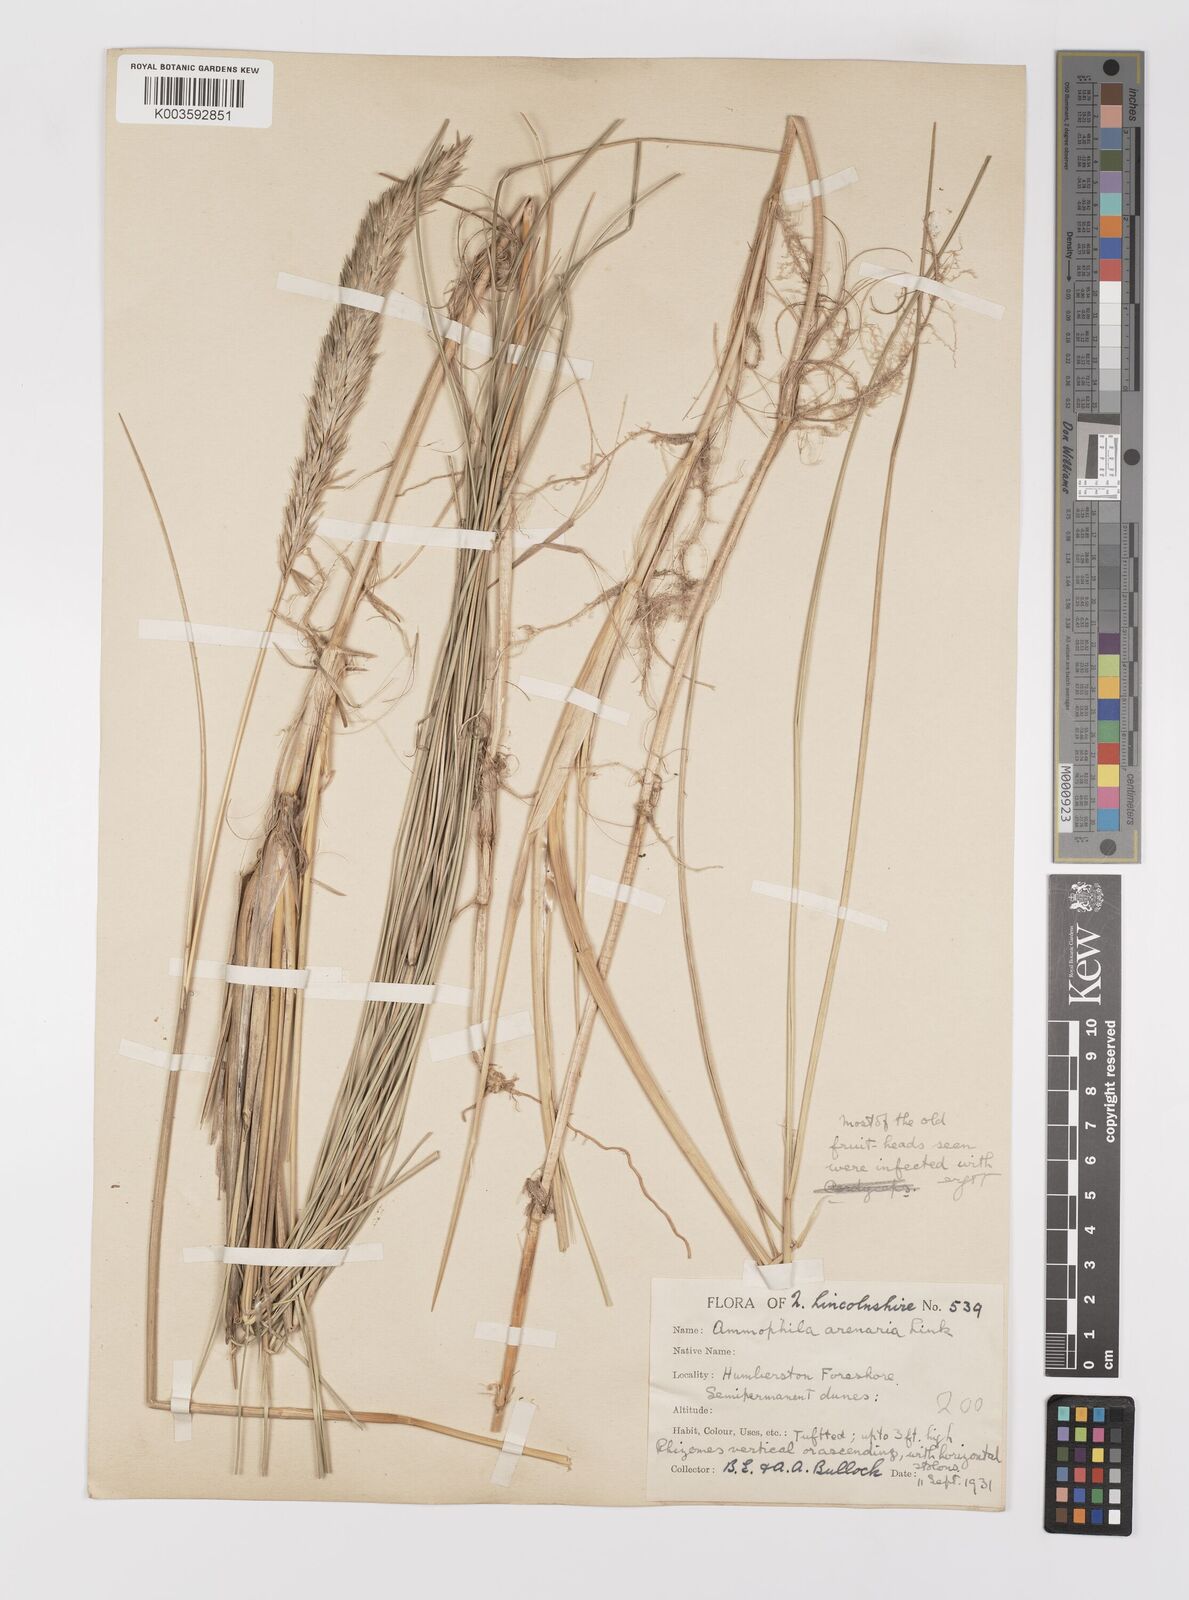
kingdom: Plantae
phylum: Tracheophyta
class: Liliopsida
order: Poales
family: Poaceae
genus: Calamagrostis
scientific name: Calamagrostis arenaria
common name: European beachgrass
